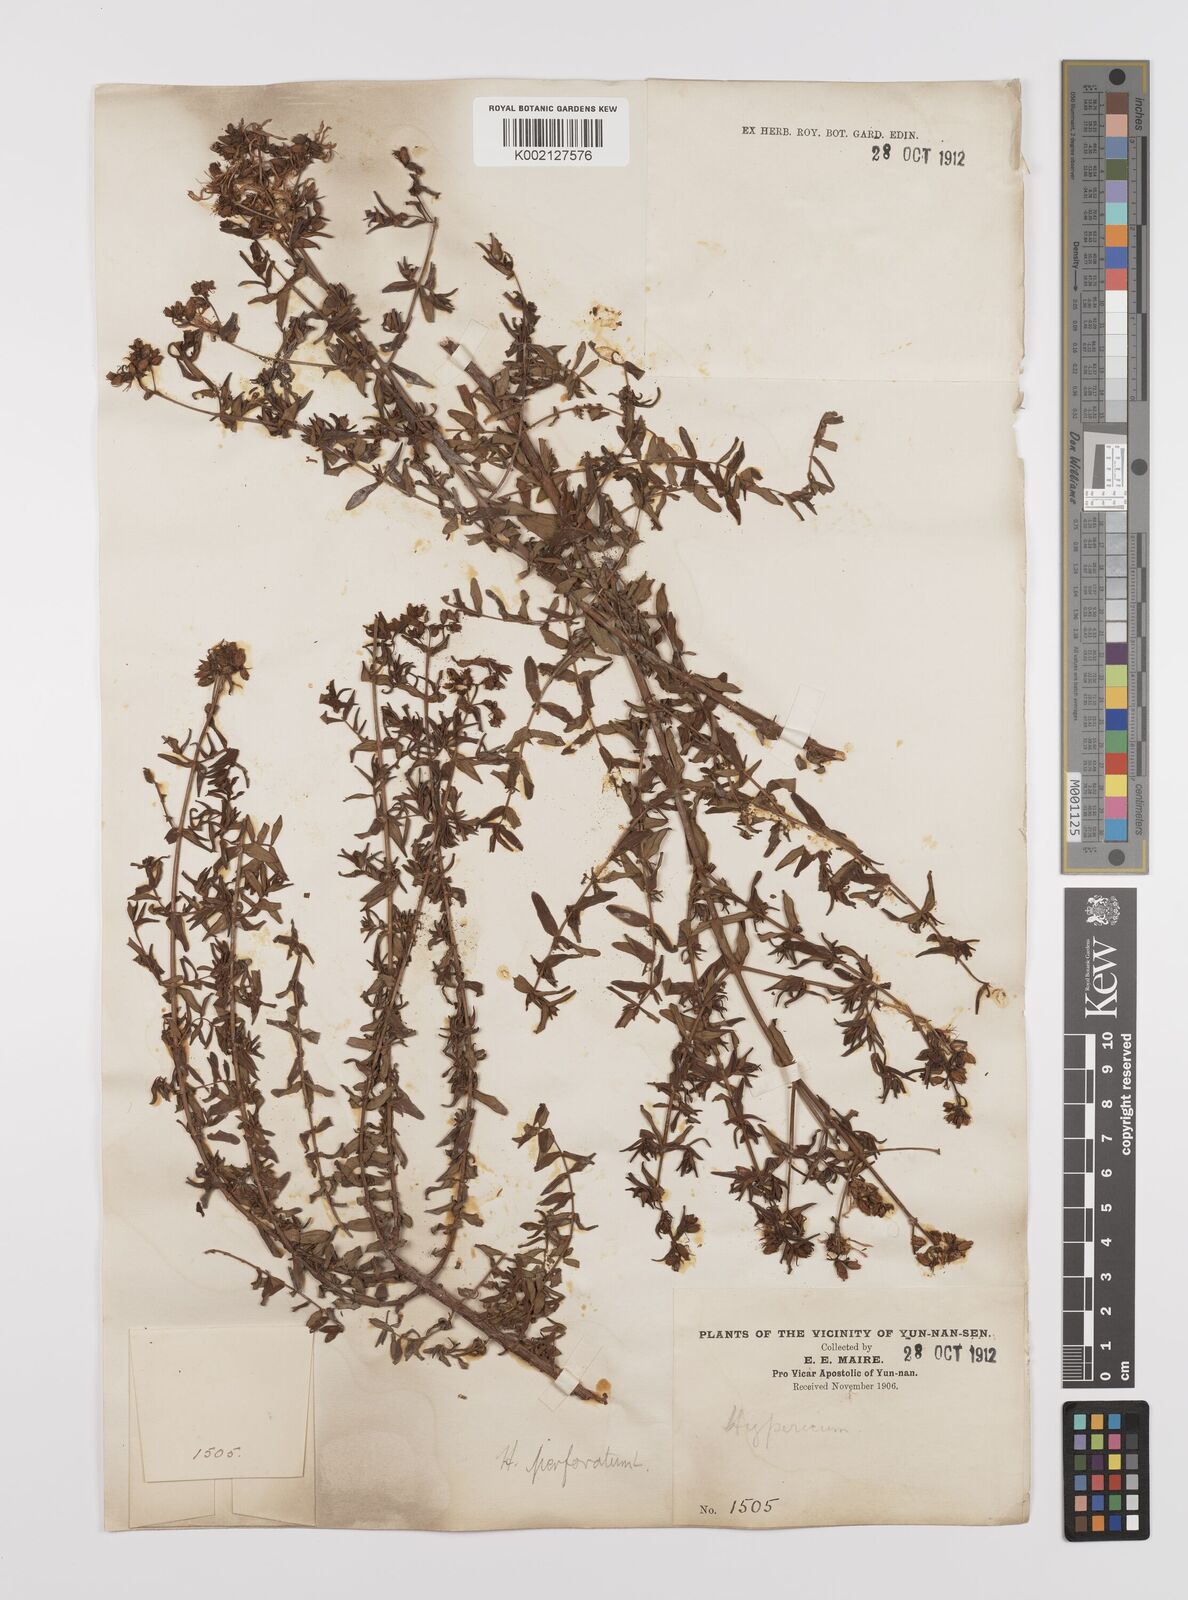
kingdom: Plantae
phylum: Tracheophyta
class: Magnoliopsida
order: Malpighiales
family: Hypericaceae
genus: Hypericum
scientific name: Hypericum perforatum
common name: Common st. johnswort
